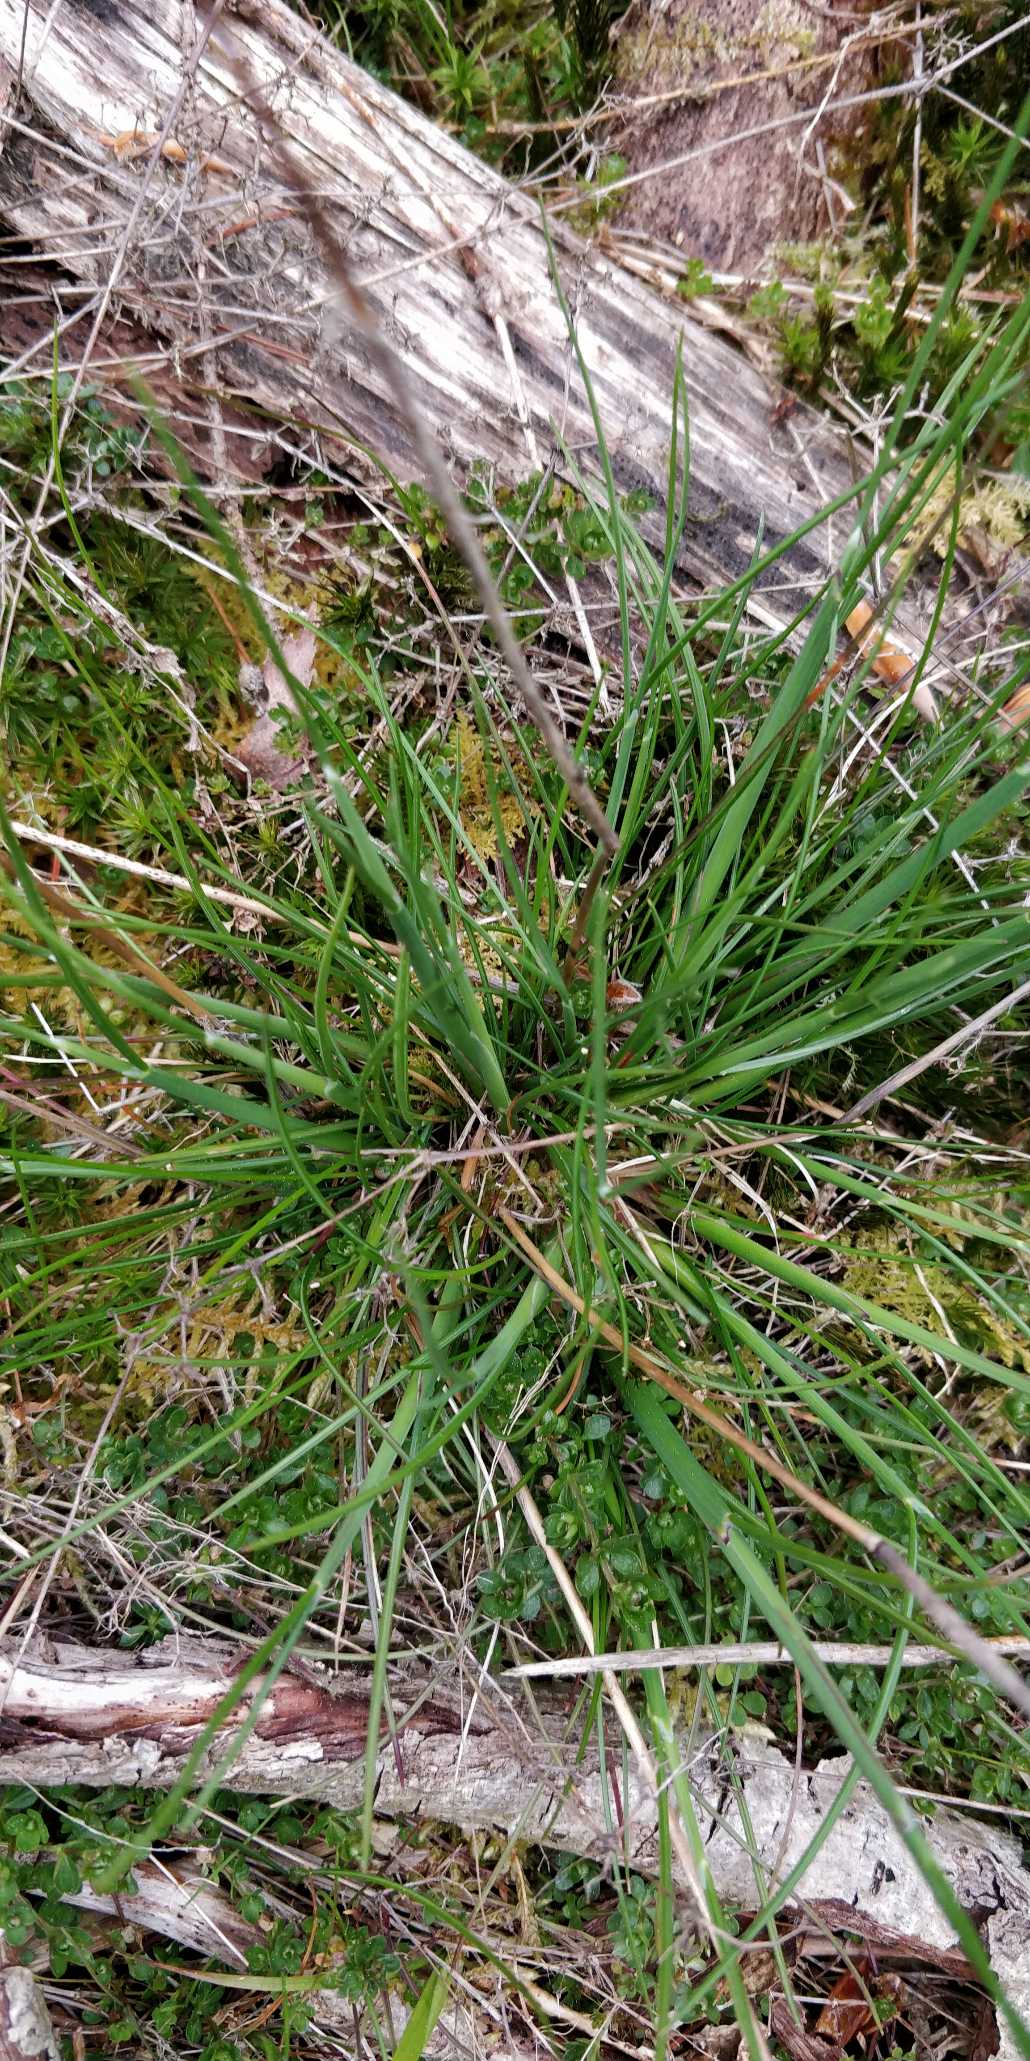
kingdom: Plantae
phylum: Tracheophyta
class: Liliopsida
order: Poales
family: Poaceae
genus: Dactylis
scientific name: Dactylis
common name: Hundegræsslægten
